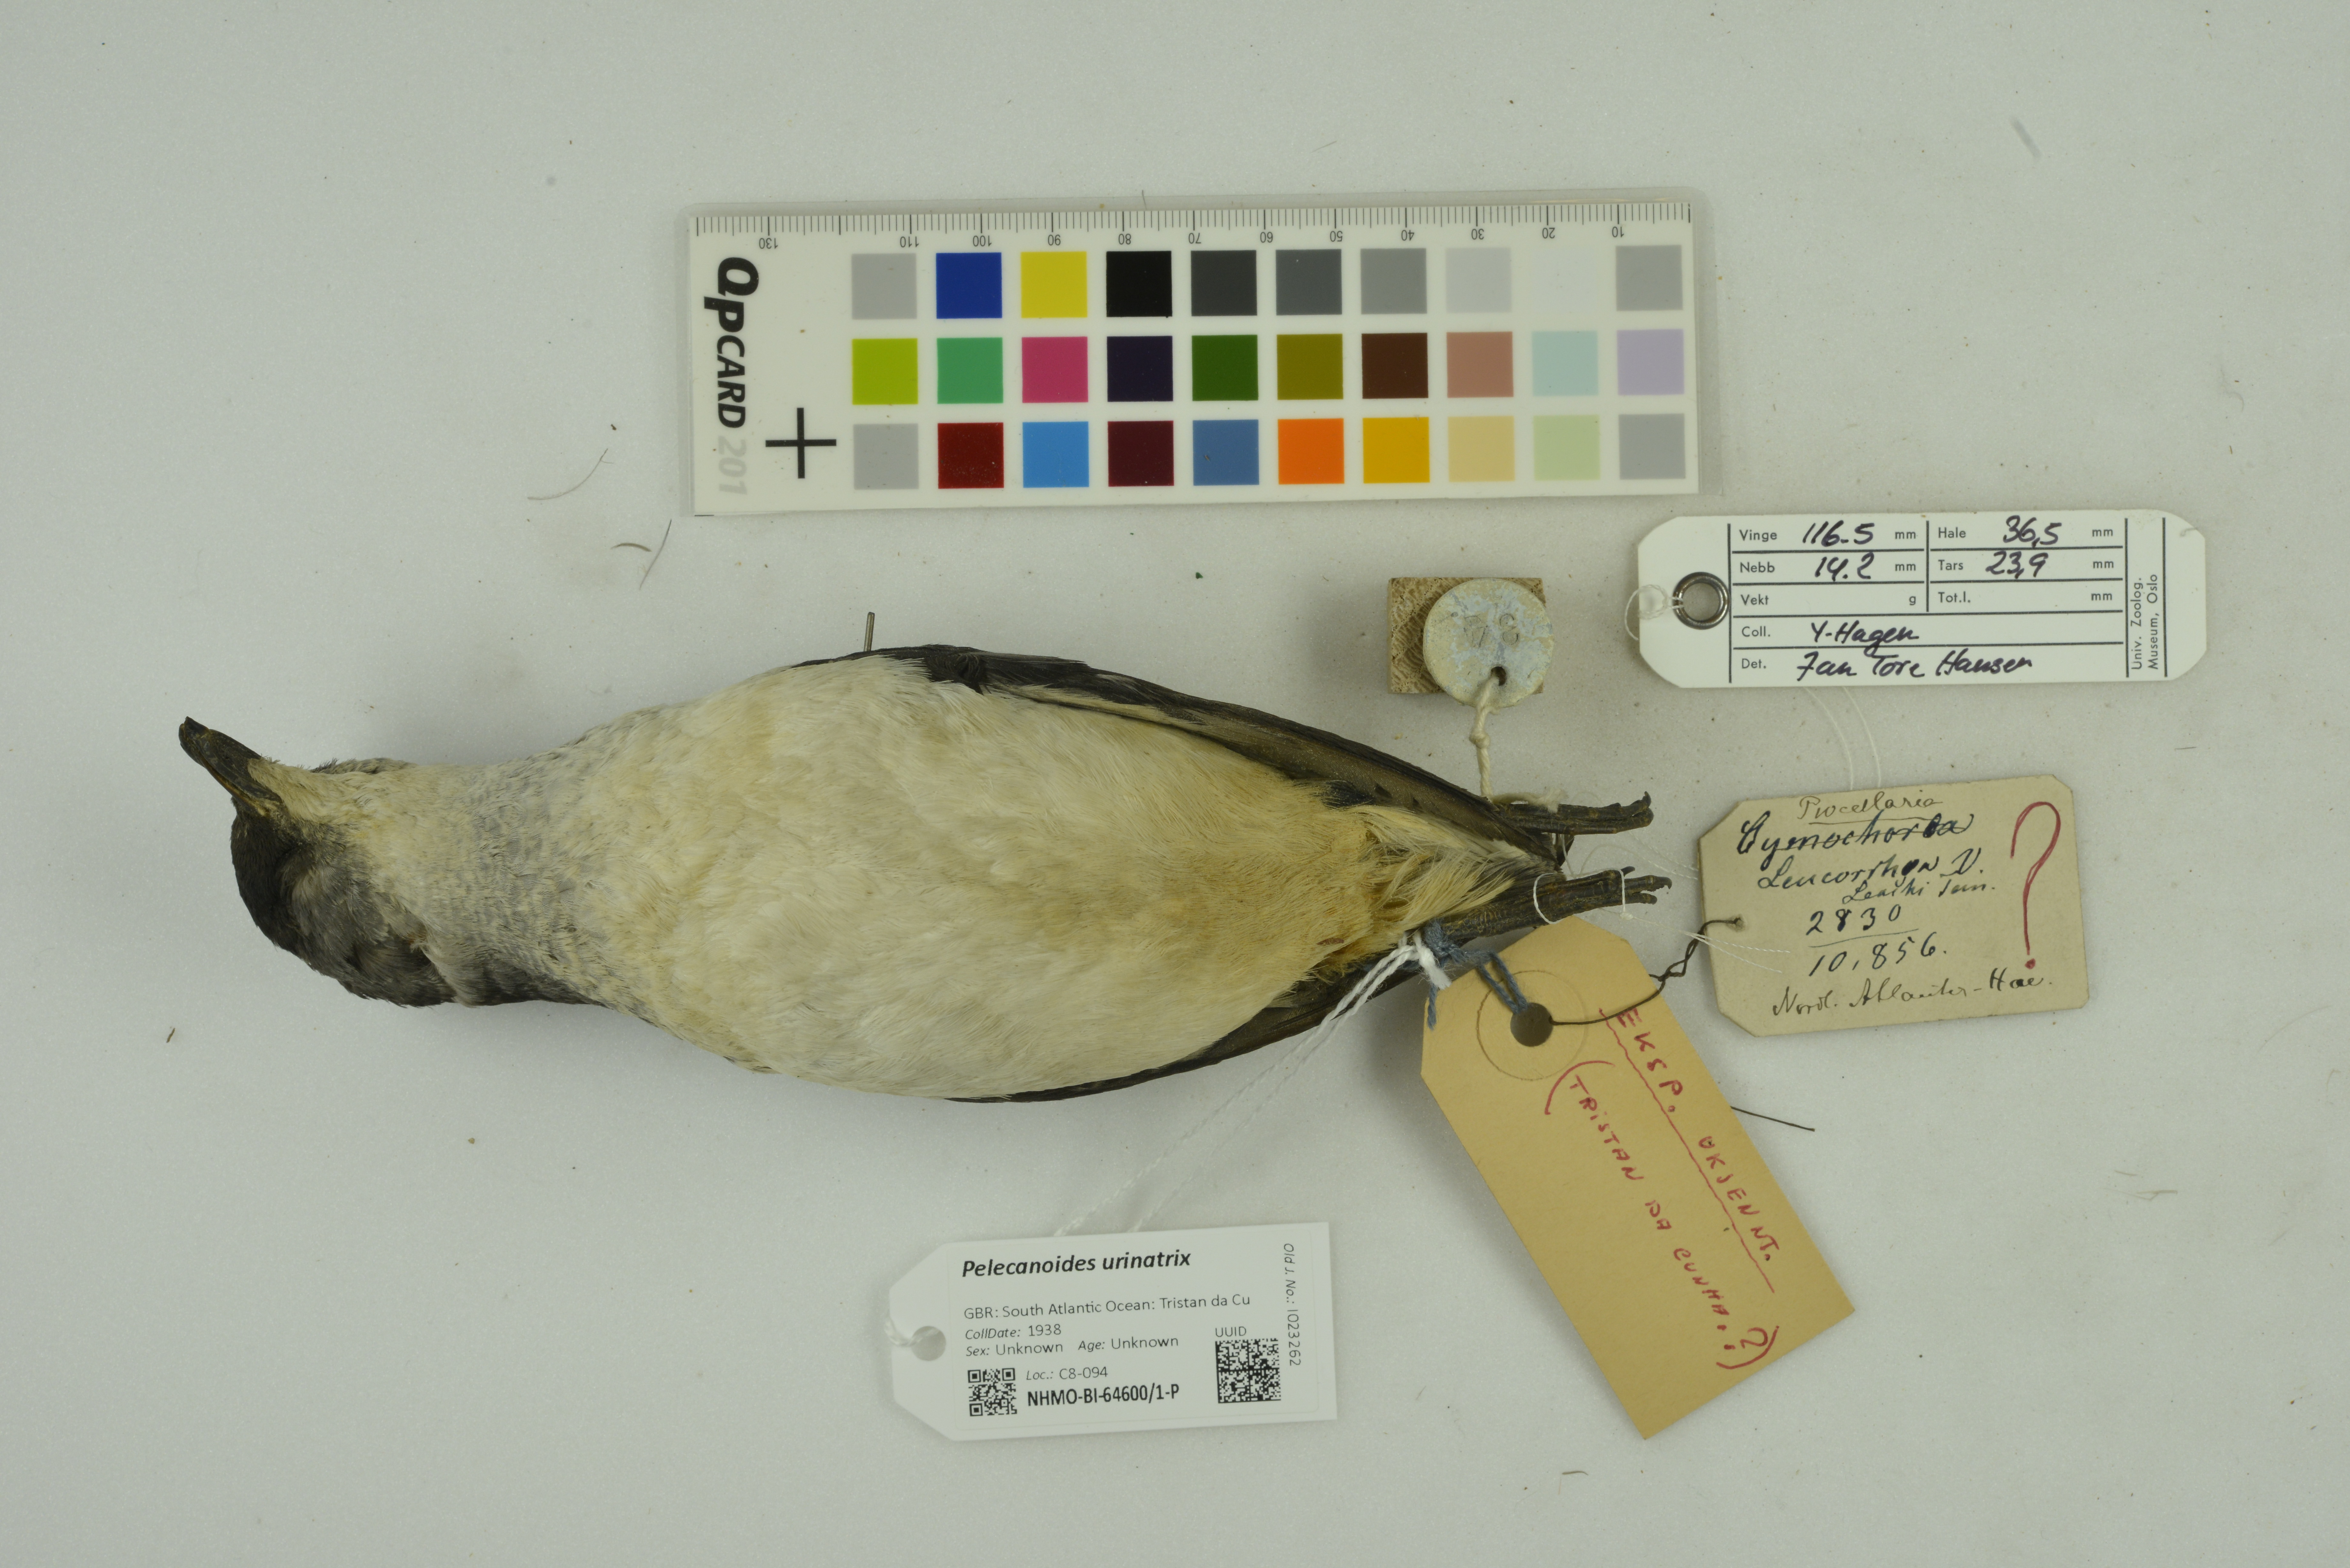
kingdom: Animalia
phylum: Chordata
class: Aves
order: Procellariiformes
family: Pelecanoididae
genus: Pelecanoides
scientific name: Pelecanoides urinatrix
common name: Common diving-petrel
